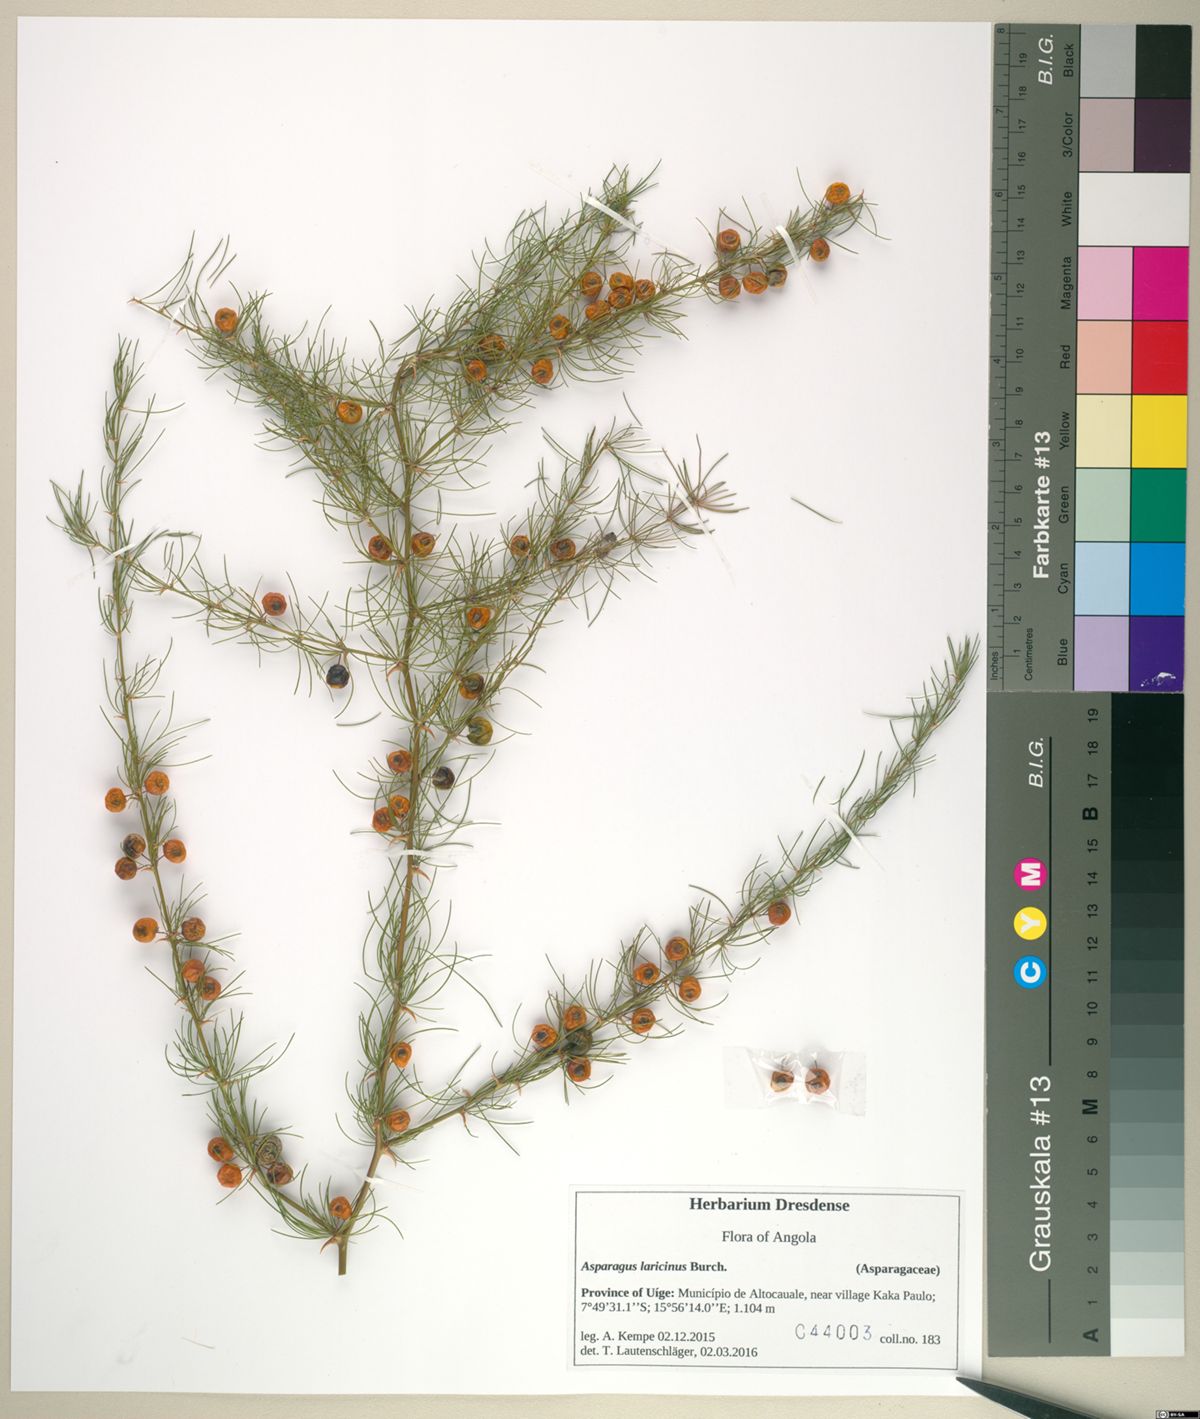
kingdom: Plantae
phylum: Tracheophyta
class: Liliopsida
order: Asparagales
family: Asparagaceae
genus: Asparagus
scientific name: Asparagus laricinus
